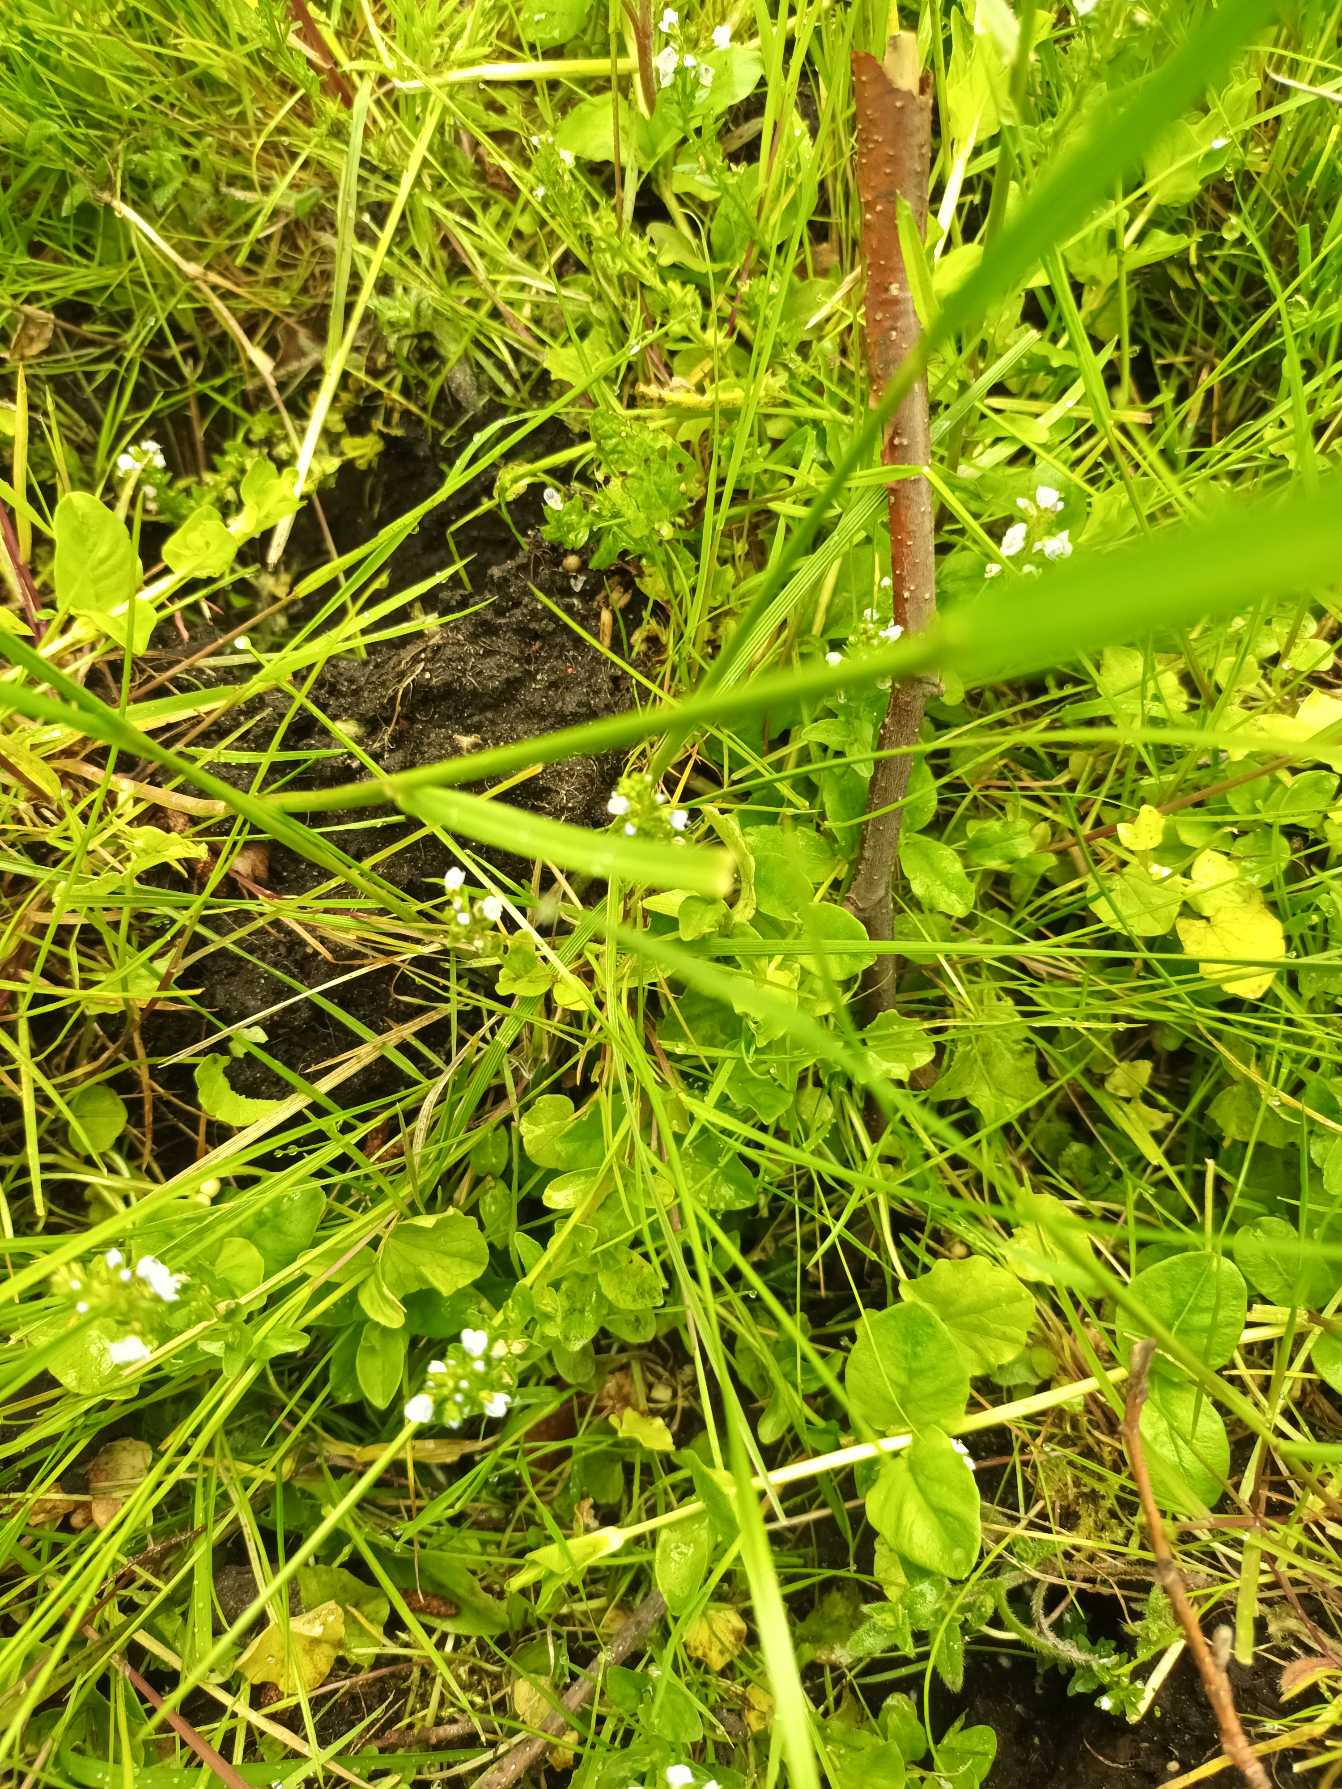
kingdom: Plantae
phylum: Tracheophyta
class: Magnoliopsida
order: Lamiales
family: Plantaginaceae
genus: Veronica
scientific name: Veronica serpyllifolia
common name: Glat ærenpris
